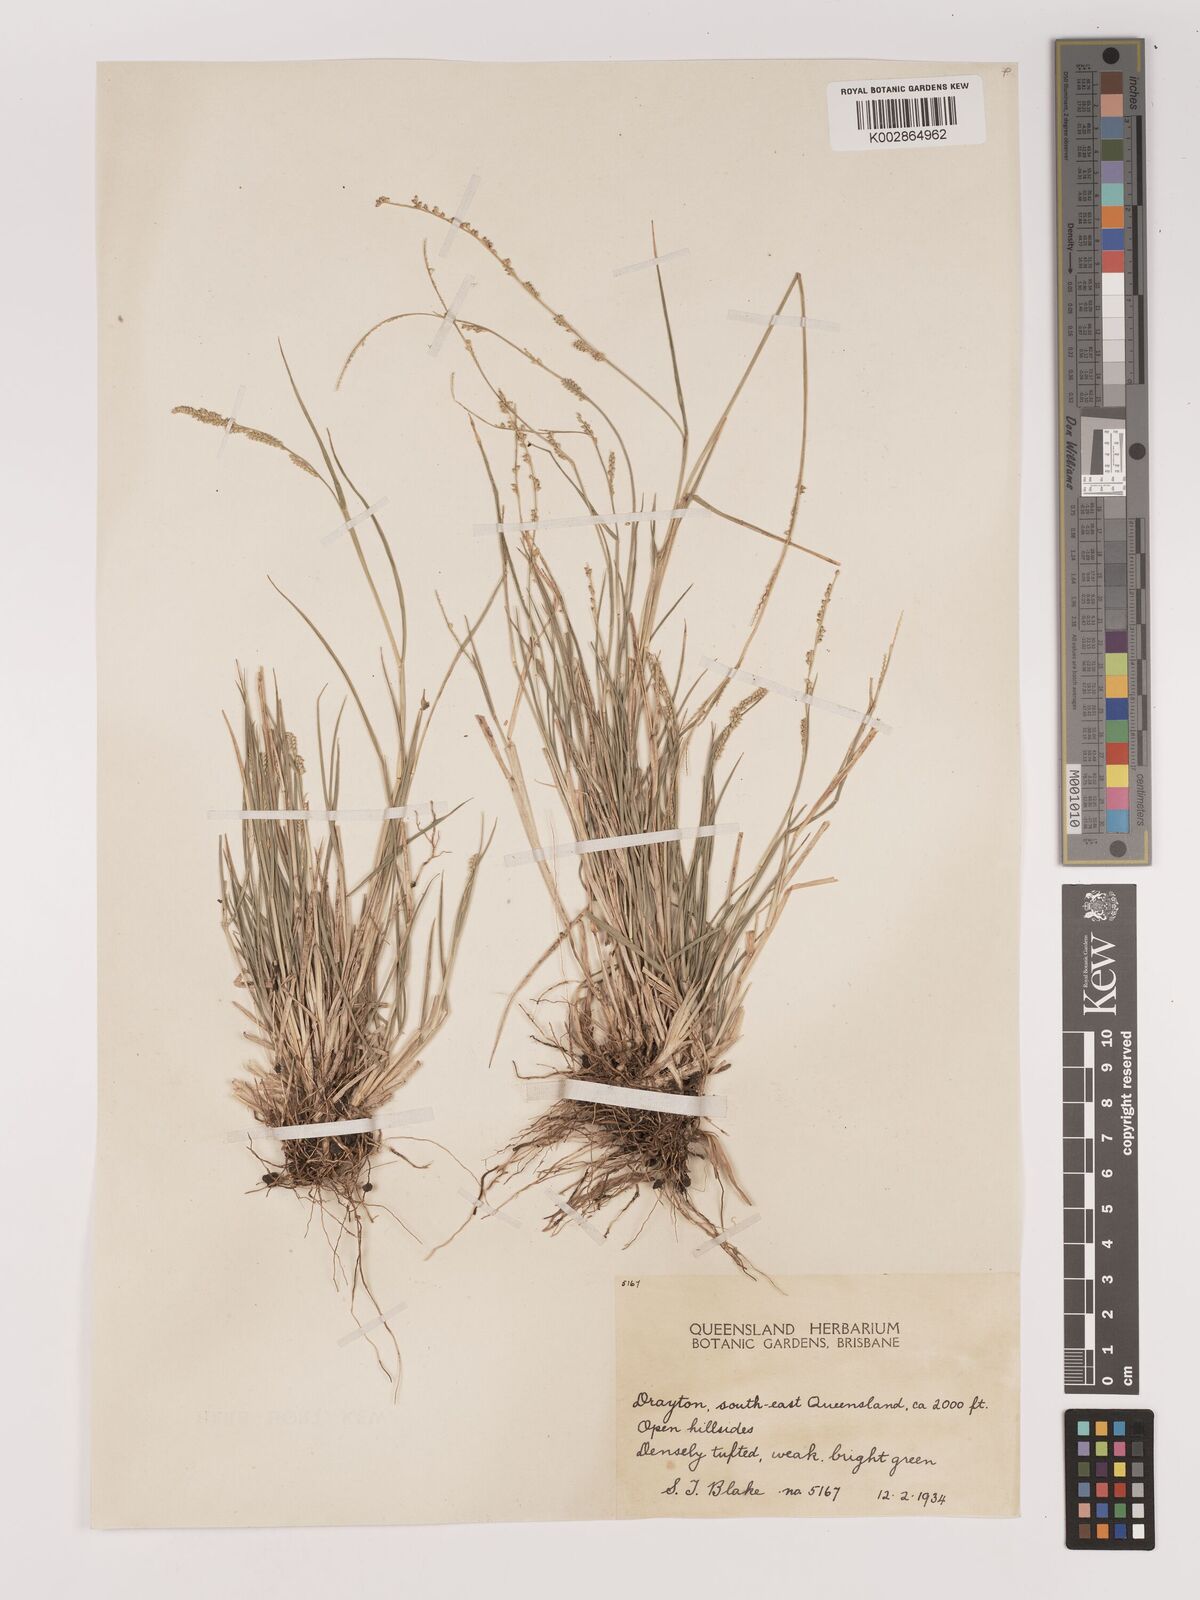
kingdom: Plantae
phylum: Tracheophyta
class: Liliopsida
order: Poales
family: Poaceae
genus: Setaria
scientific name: Setaria
